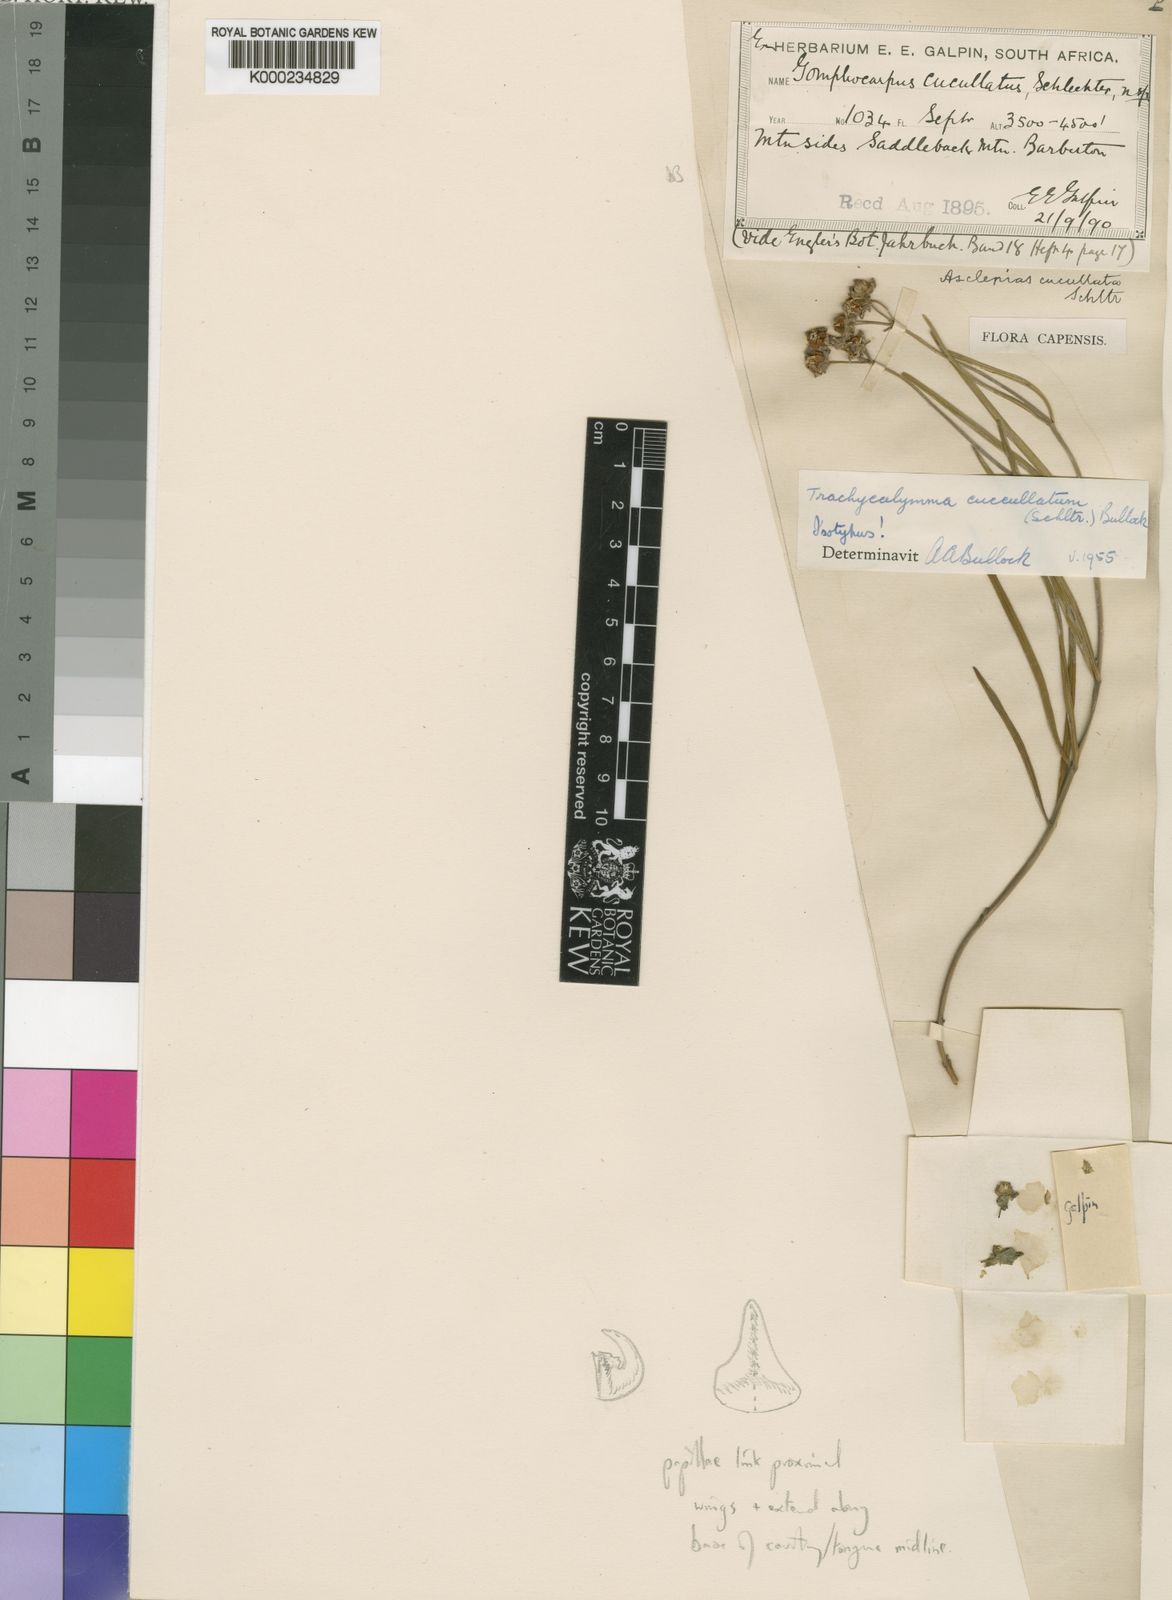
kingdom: Plantae
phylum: Tracheophyta
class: Magnoliopsida
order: Gentianales
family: Apocynaceae
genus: Asclepias
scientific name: Asclepias cucullata
